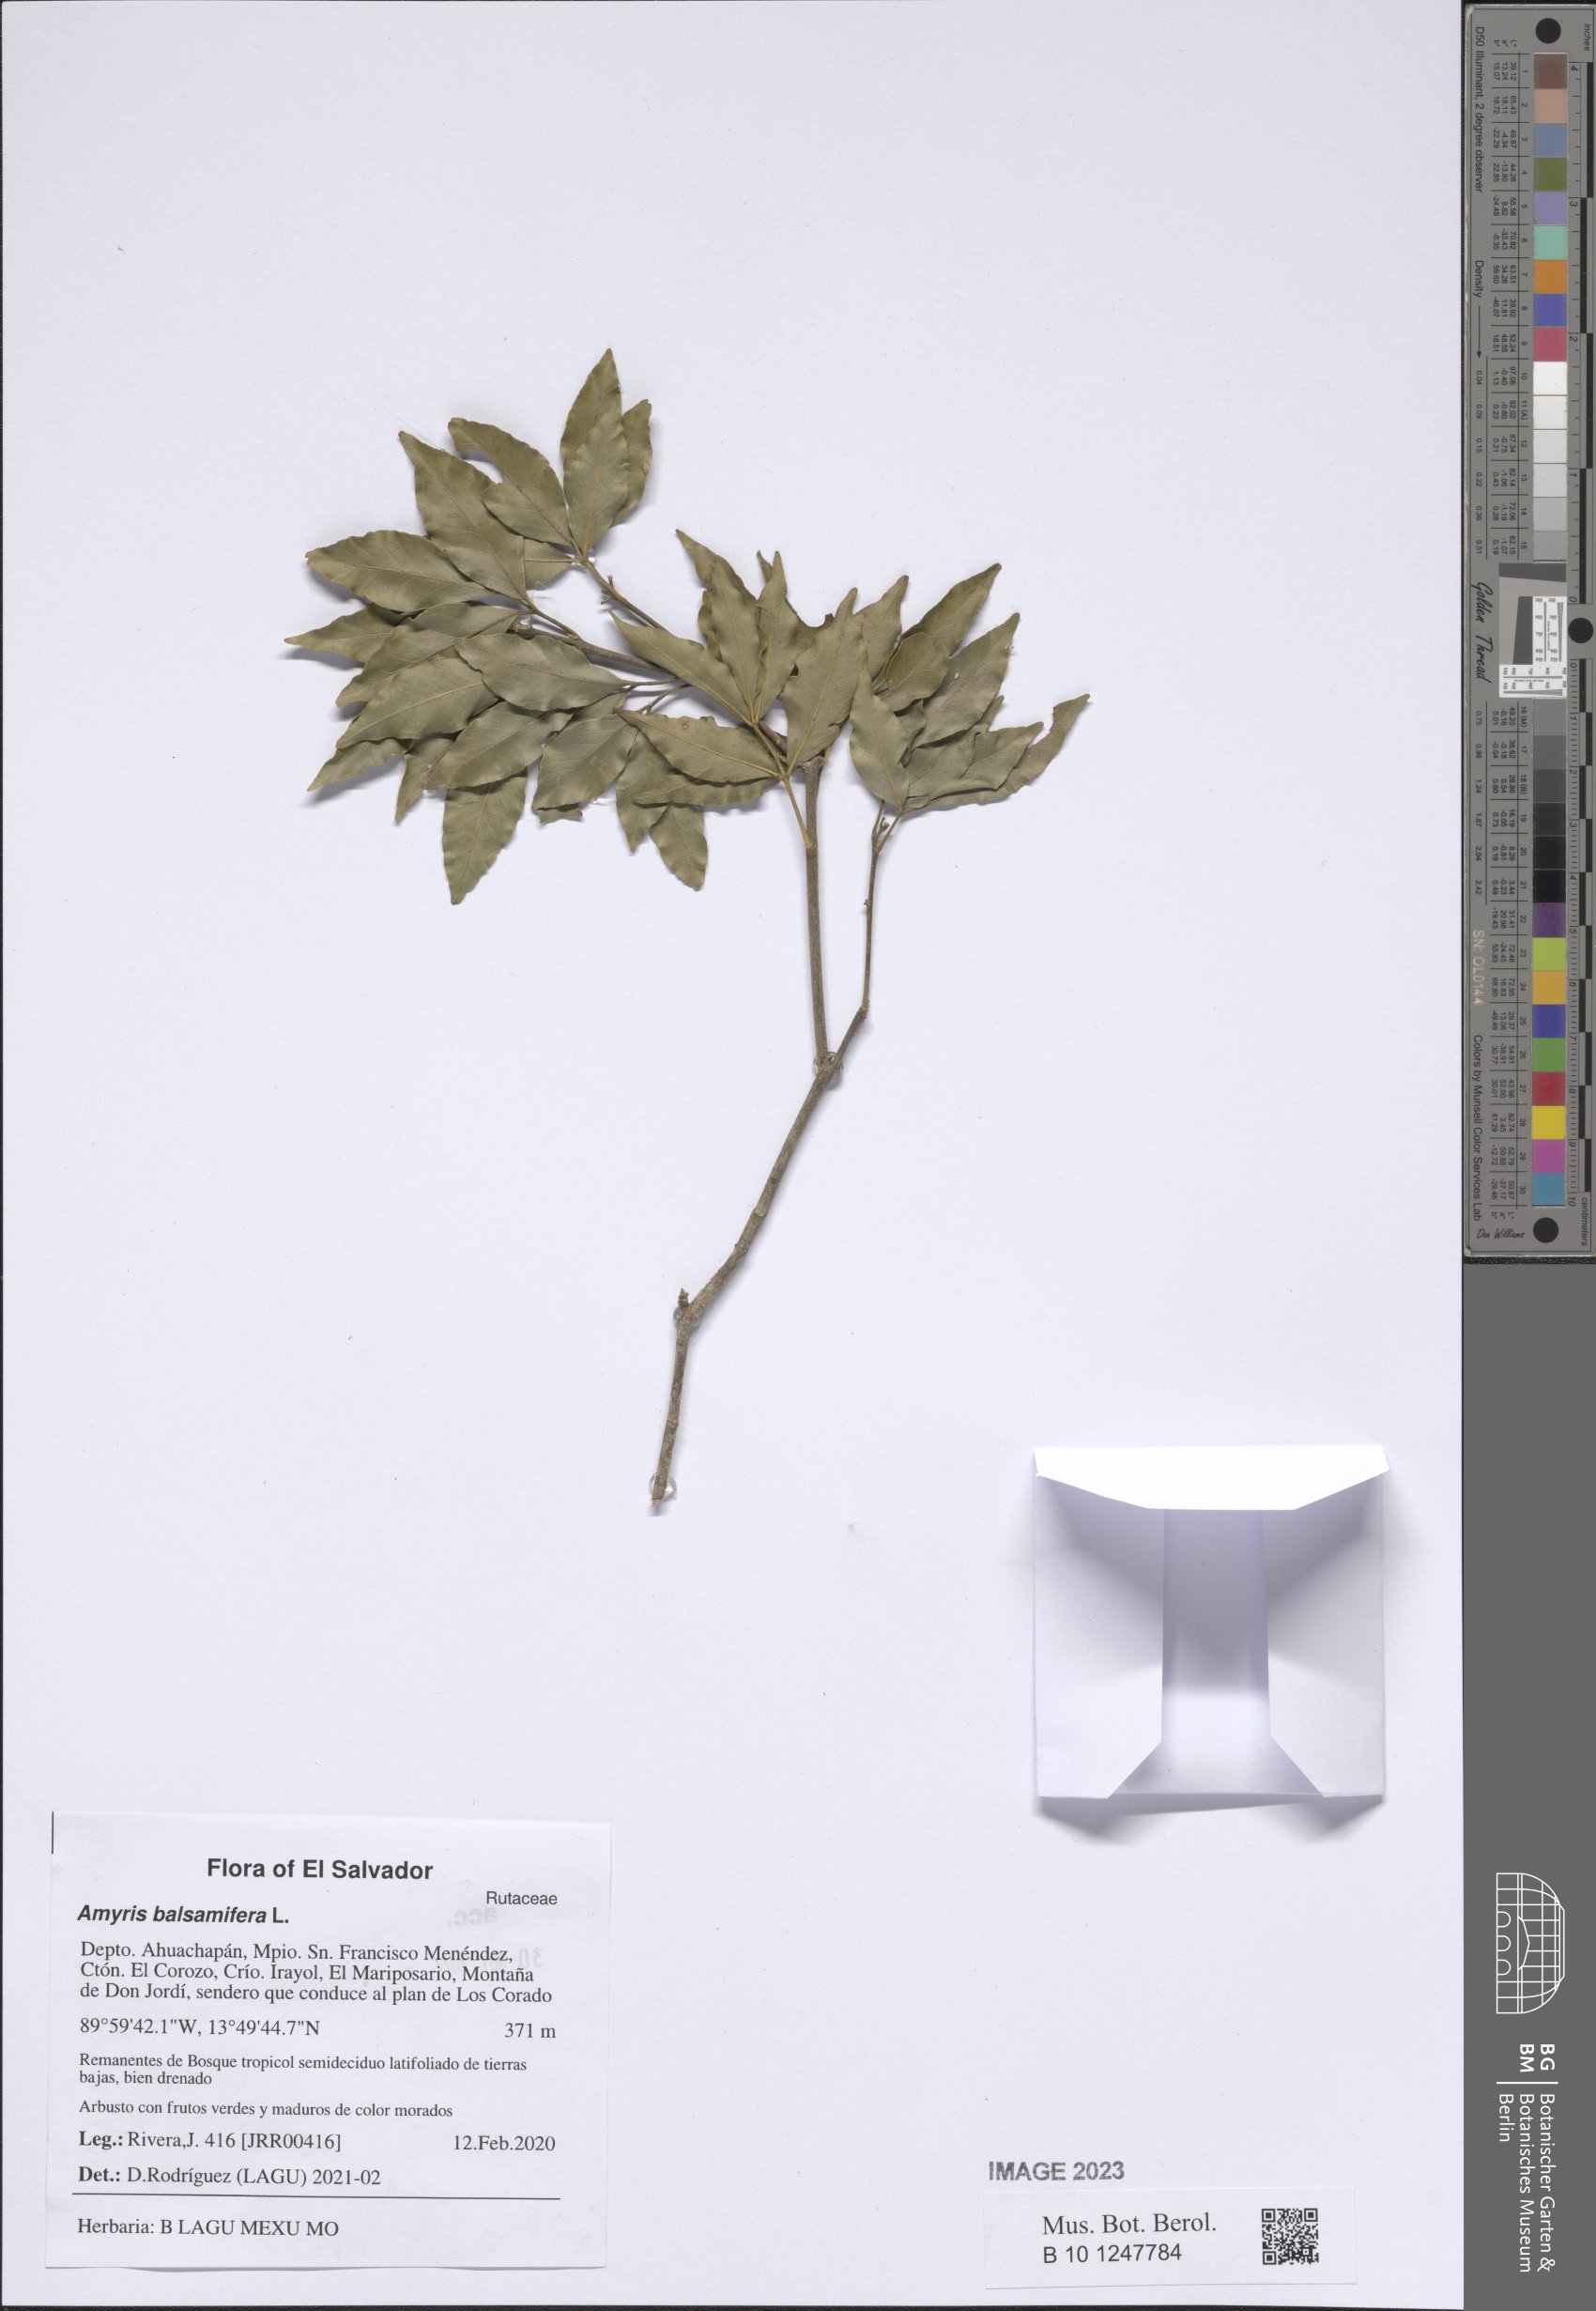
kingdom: Plantae
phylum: Tracheophyta
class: Magnoliopsida
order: Sapindales
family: Rutaceae
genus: Amyris
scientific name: Amyris balsamifera
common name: Balsam amyris
